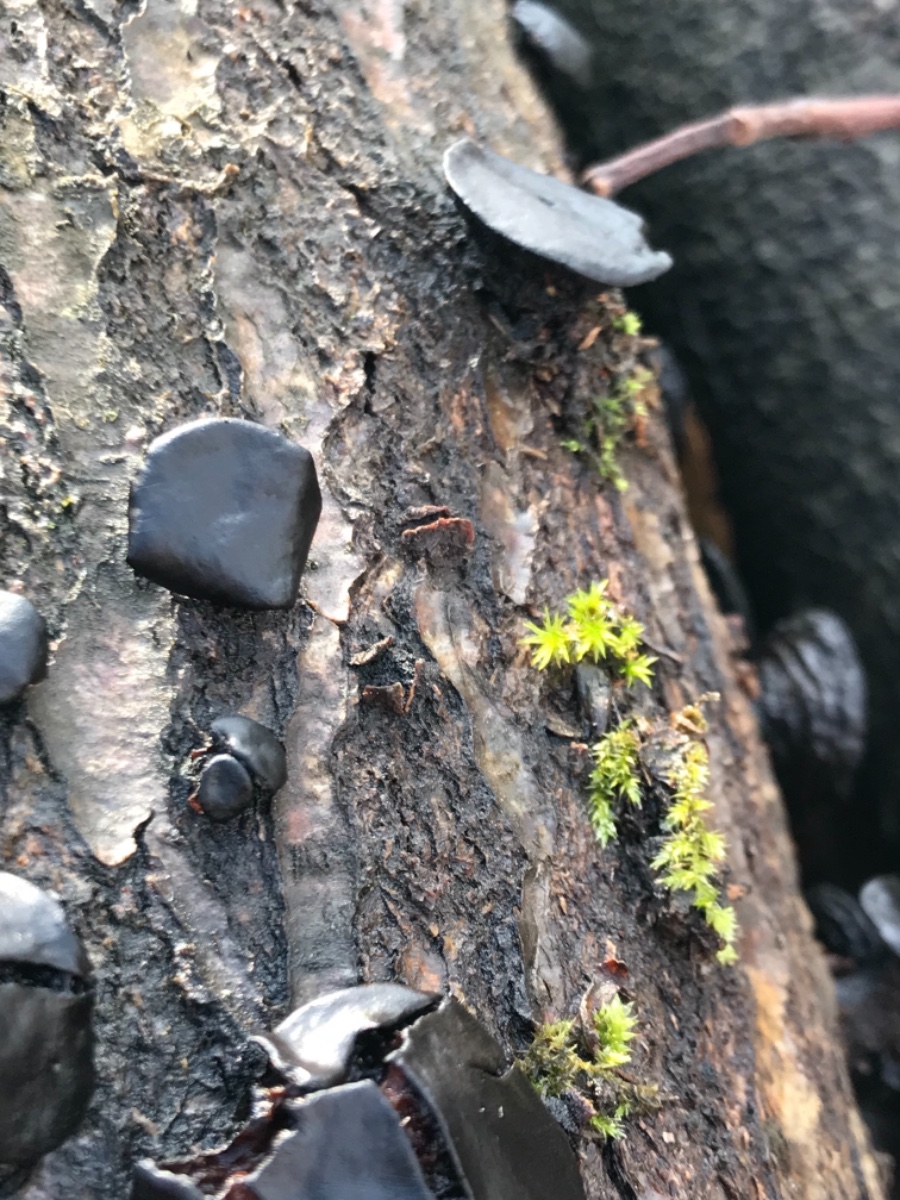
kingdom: Fungi
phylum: Ascomycota
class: Leotiomycetes
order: Phacidiales
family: Phacidiaceae
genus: Bulgaria
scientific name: Bulgaria inquinans
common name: afsmittende topsvamp
